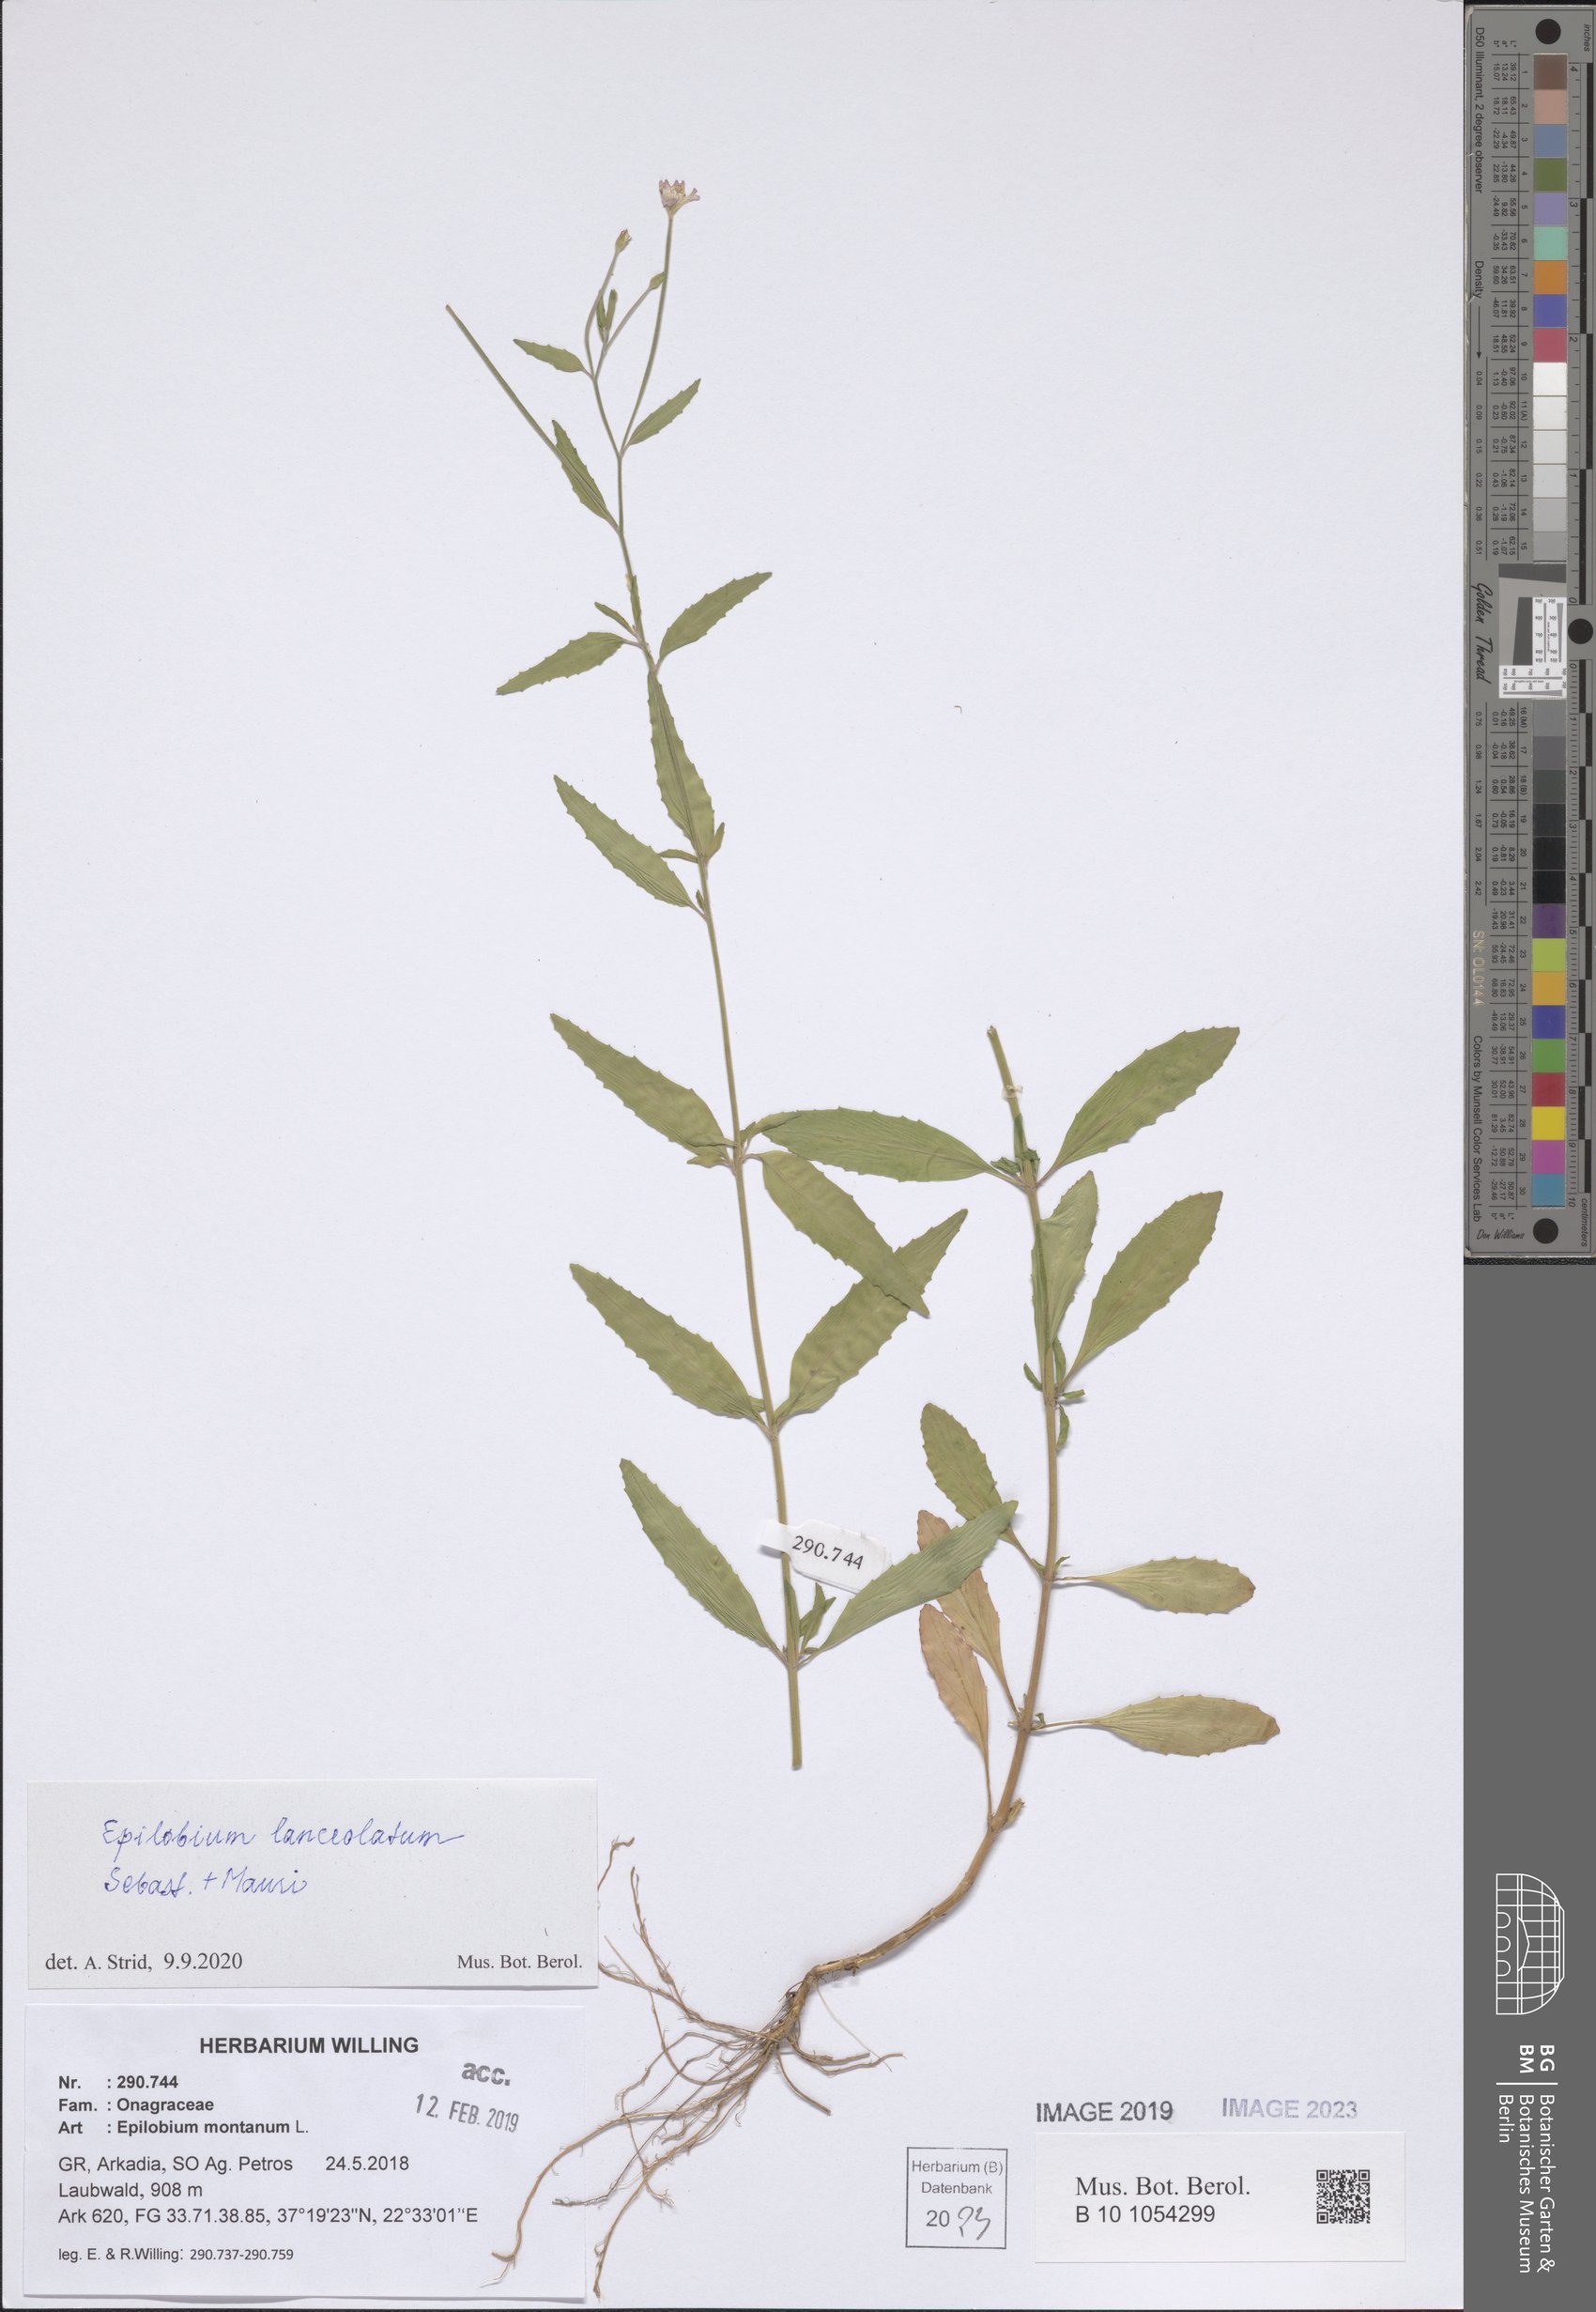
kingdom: Plantae
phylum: Tracheophyta
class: Magnoliopsida
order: Myrtales
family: Onagraceae
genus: Epilobium
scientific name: Epilobium lanceolatum
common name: Spear-leaved willowherb
